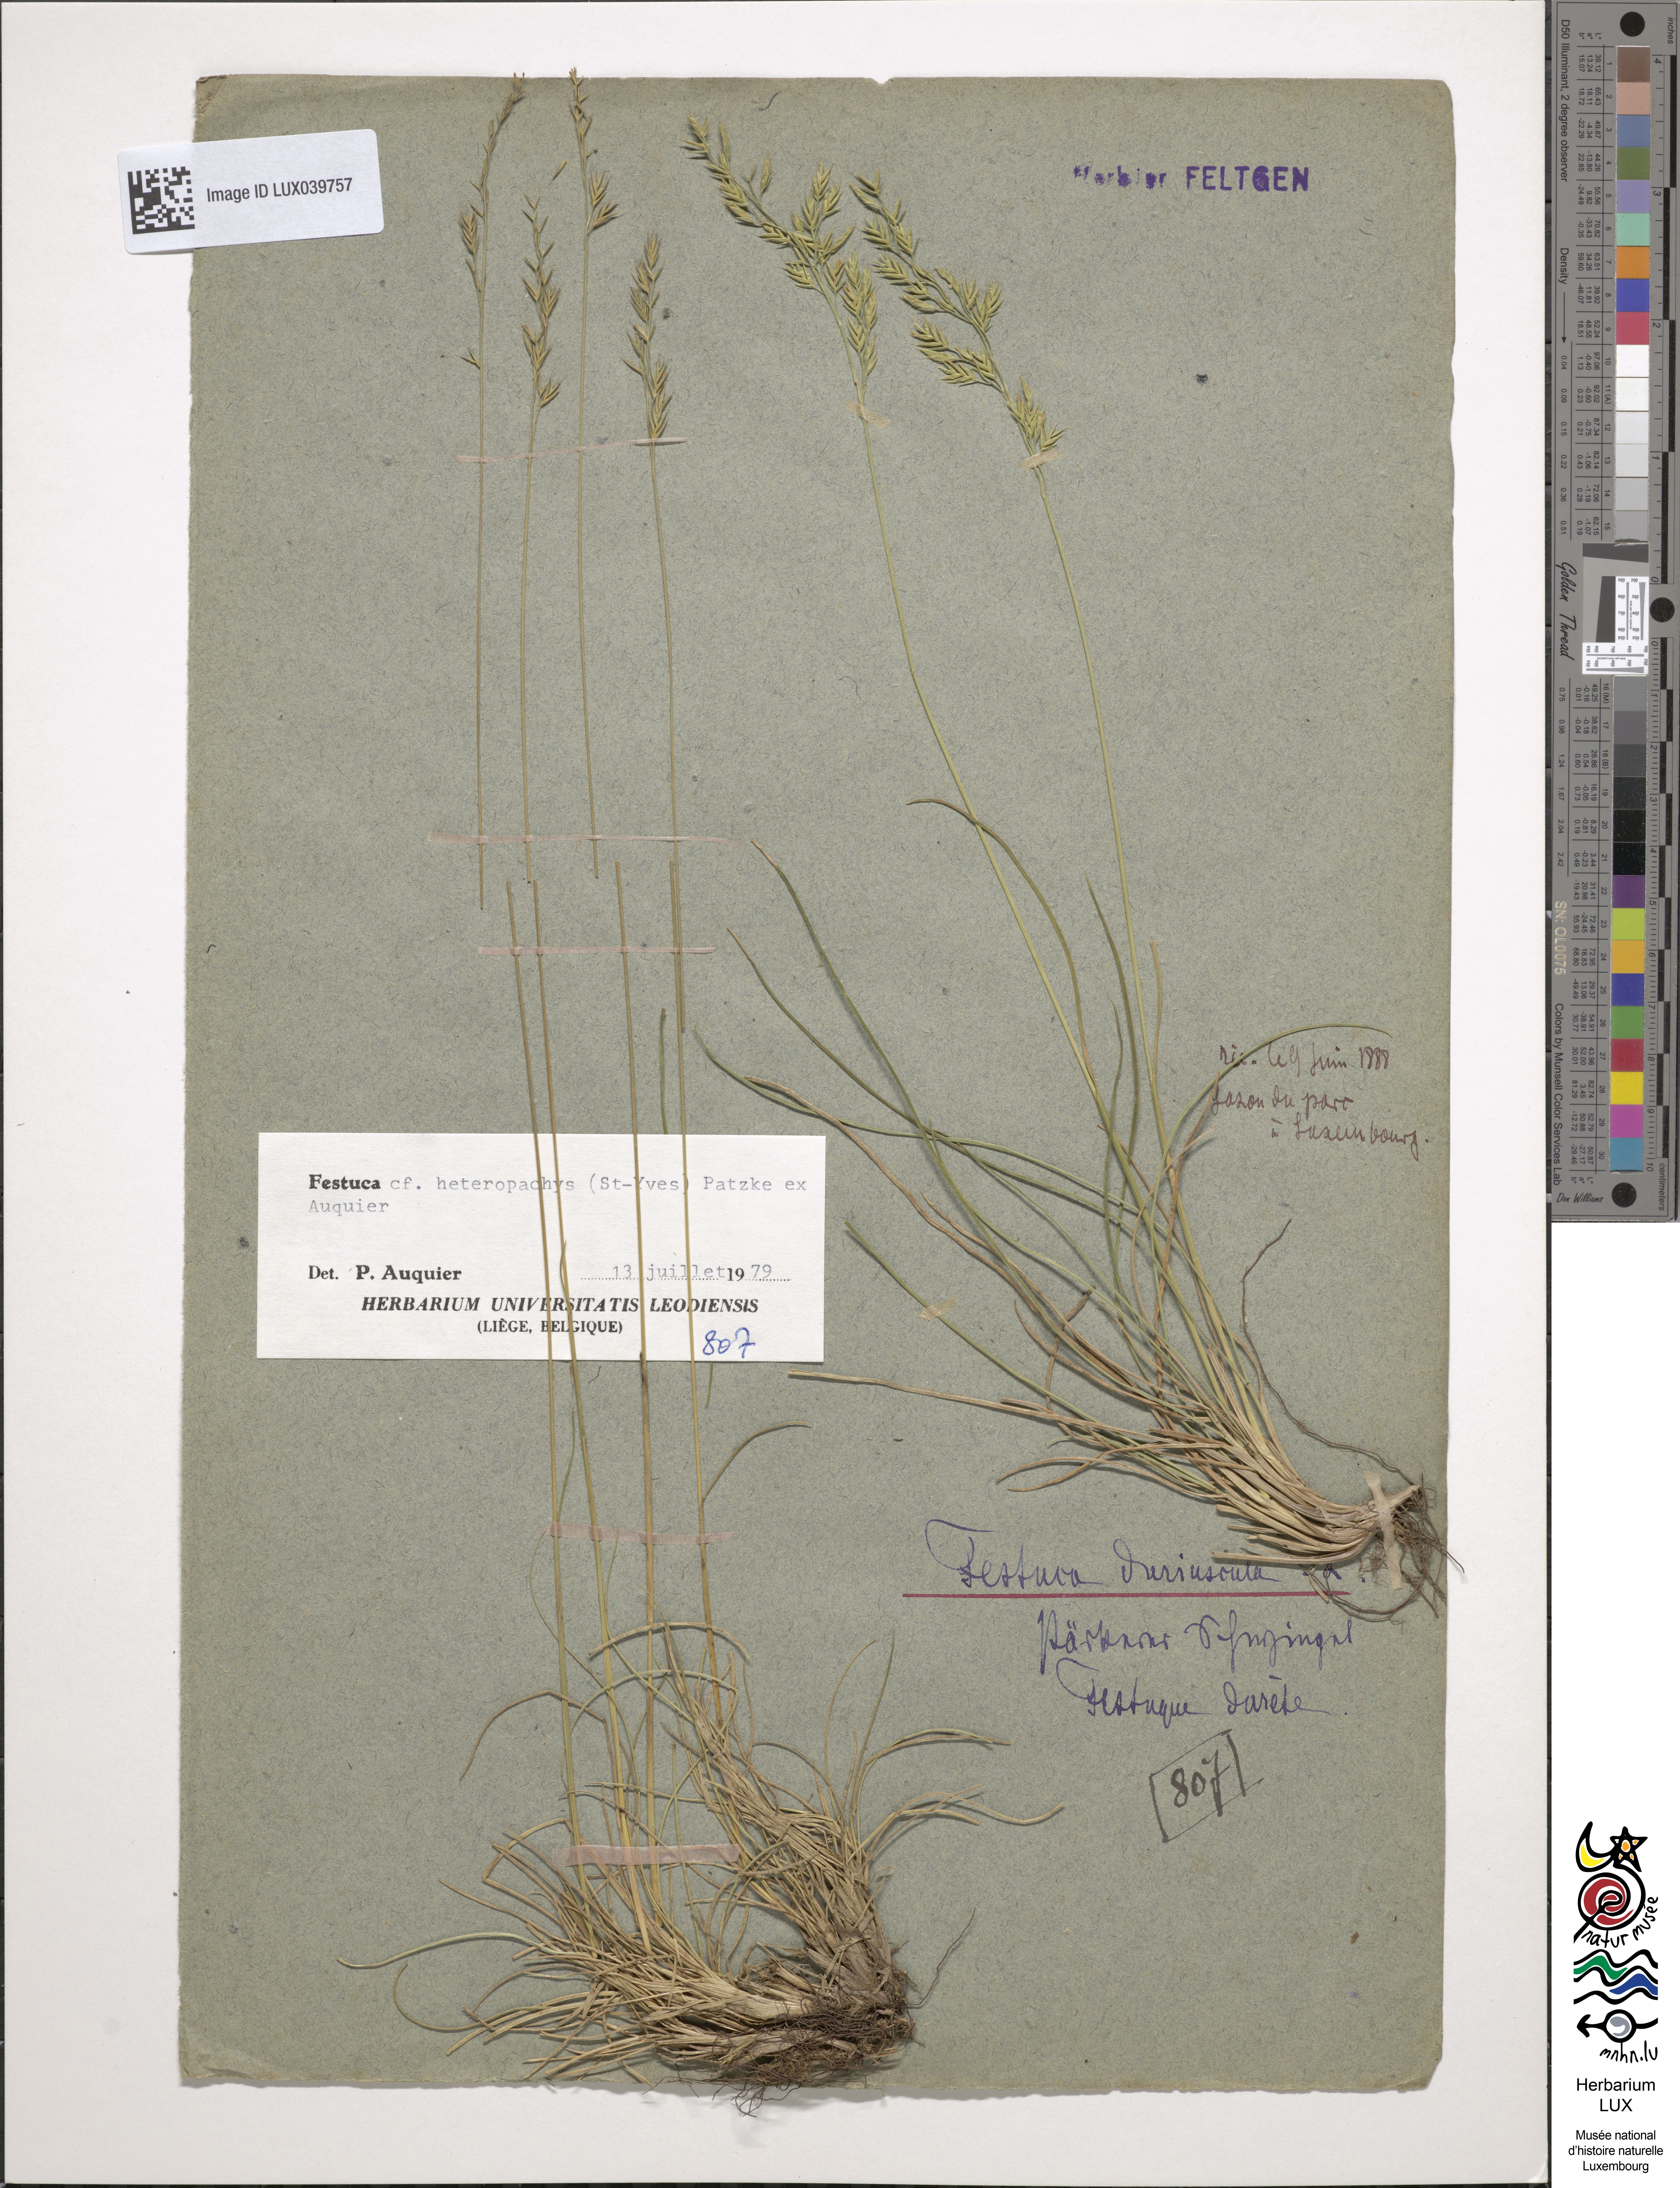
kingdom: Plantae
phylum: Tracheophyta
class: Liliopsida
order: Poales
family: Poaceae
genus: Festuca
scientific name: Festuca rubra
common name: Red fescue
